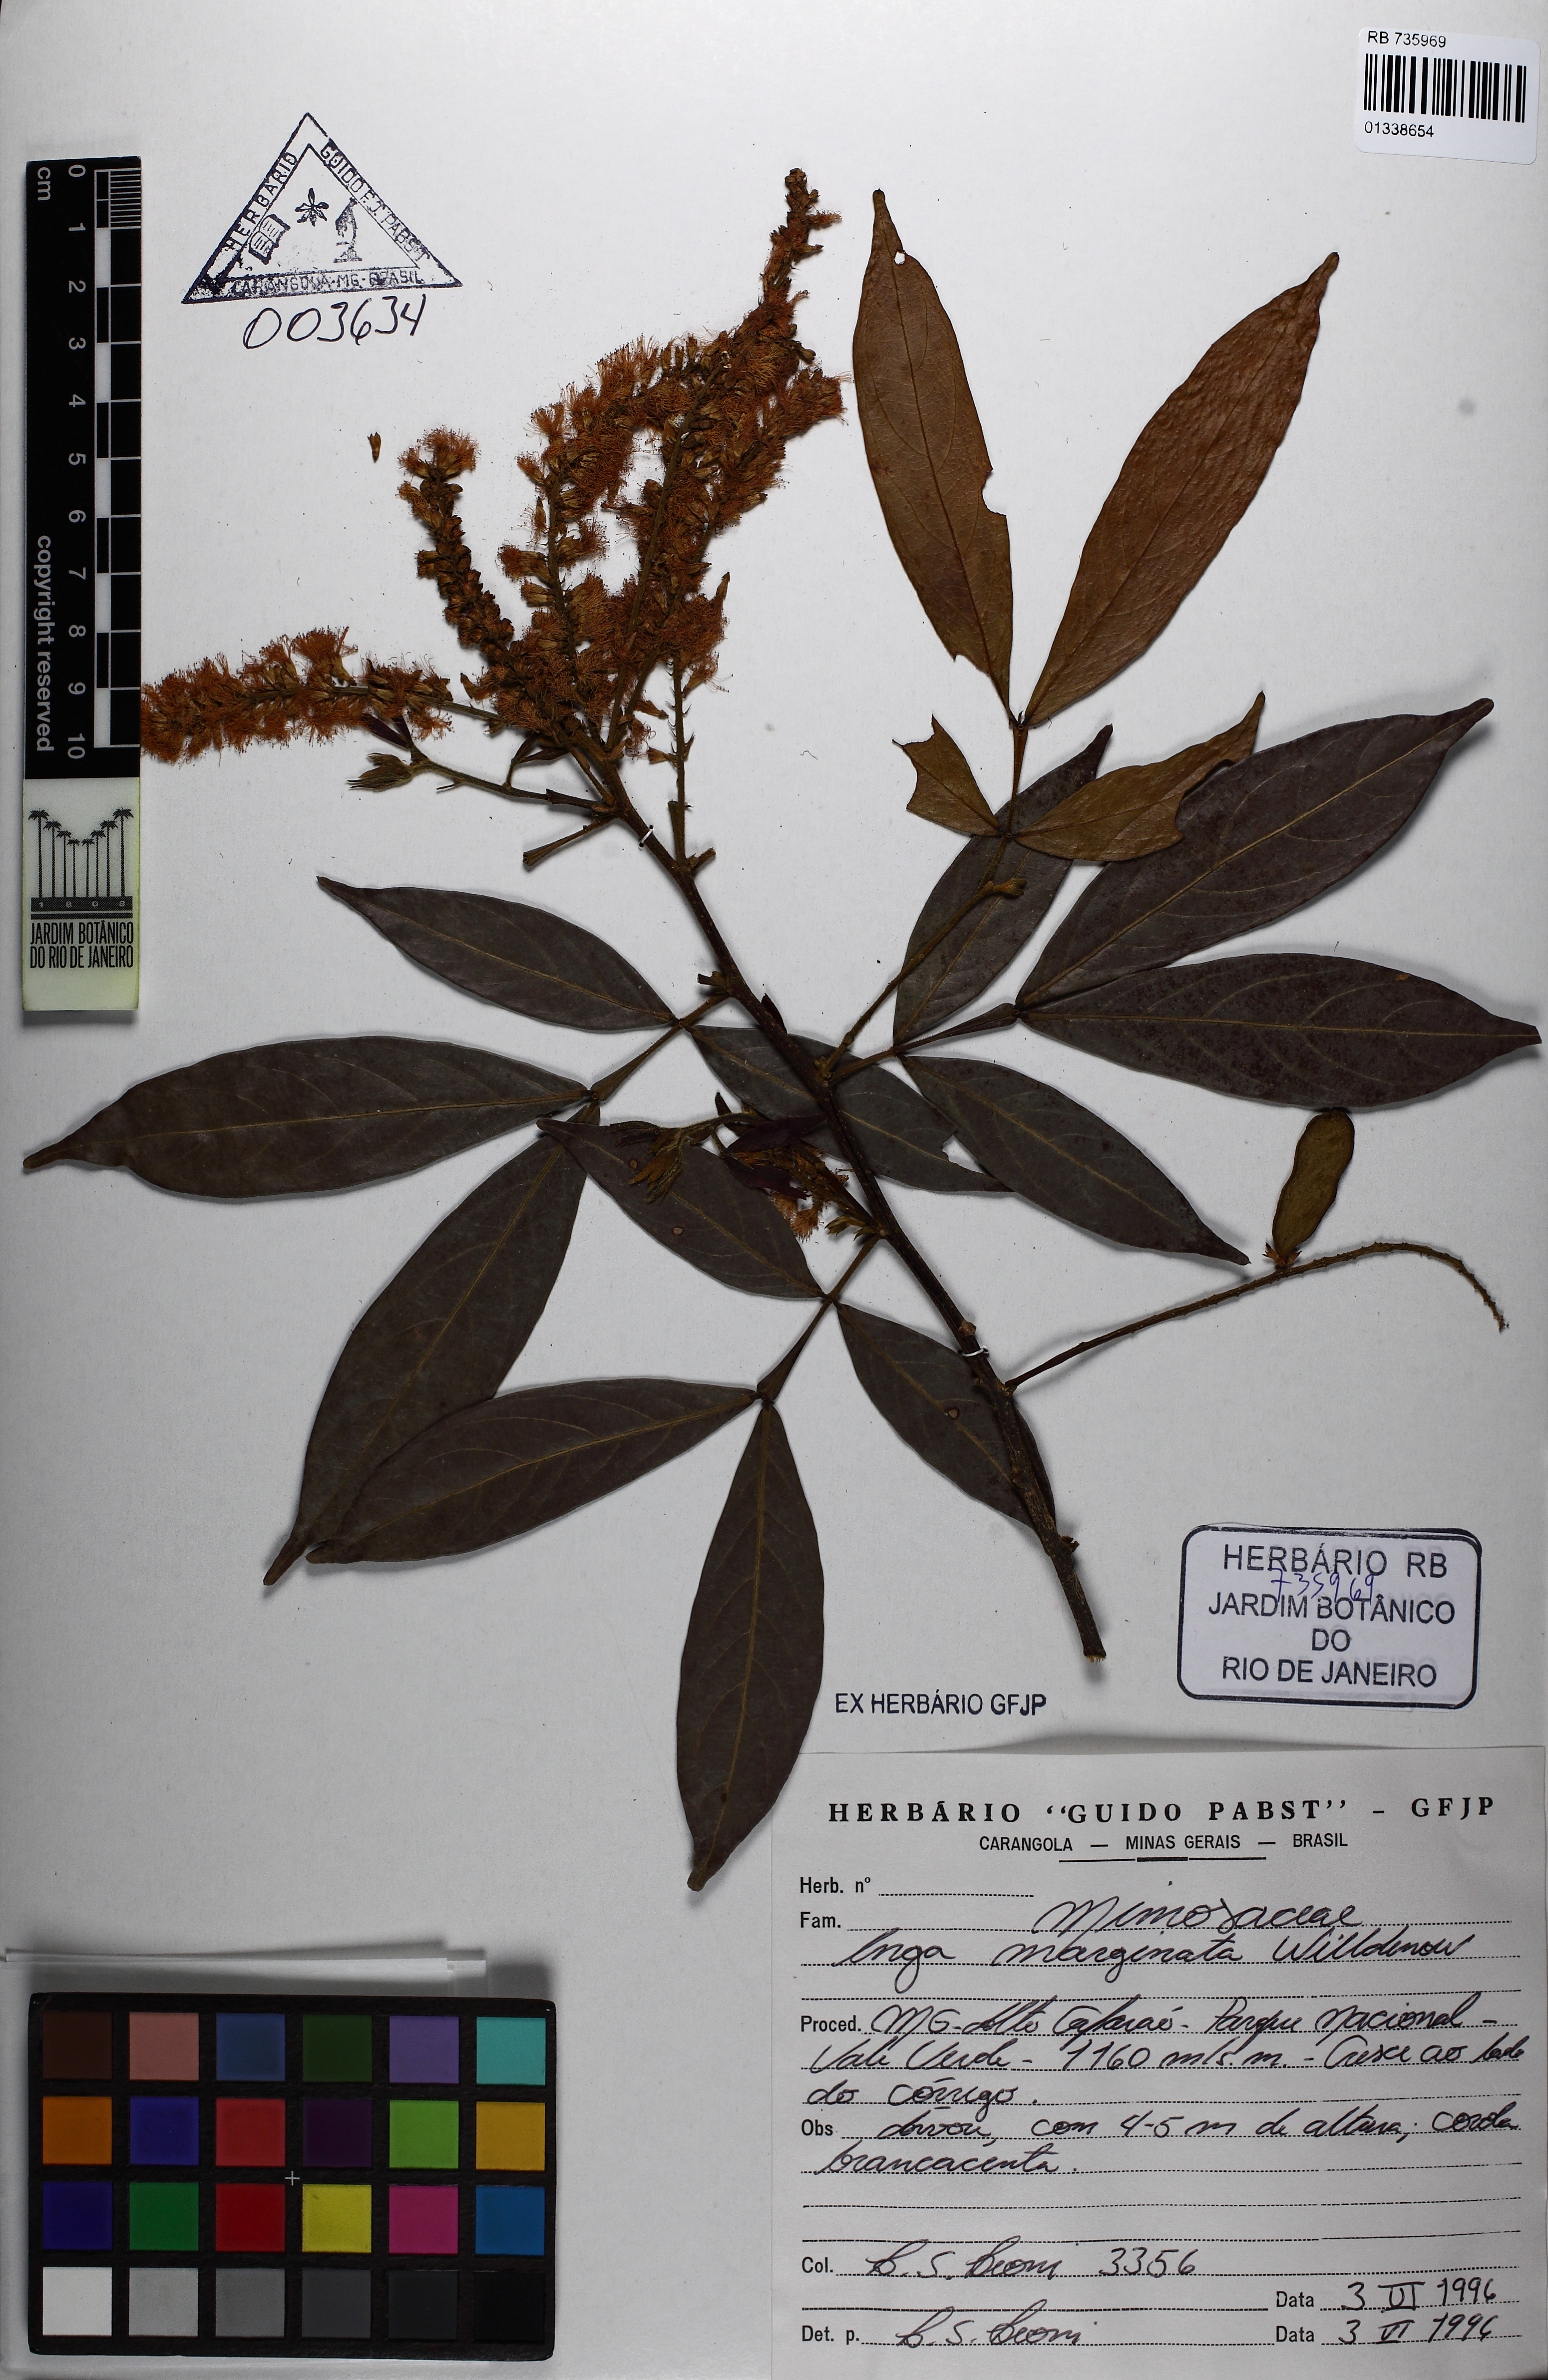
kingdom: Plantae
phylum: Tracheophyta
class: Magnoliopsida
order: Fabales
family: Fabaceae
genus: Inga
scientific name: Inga marginata
